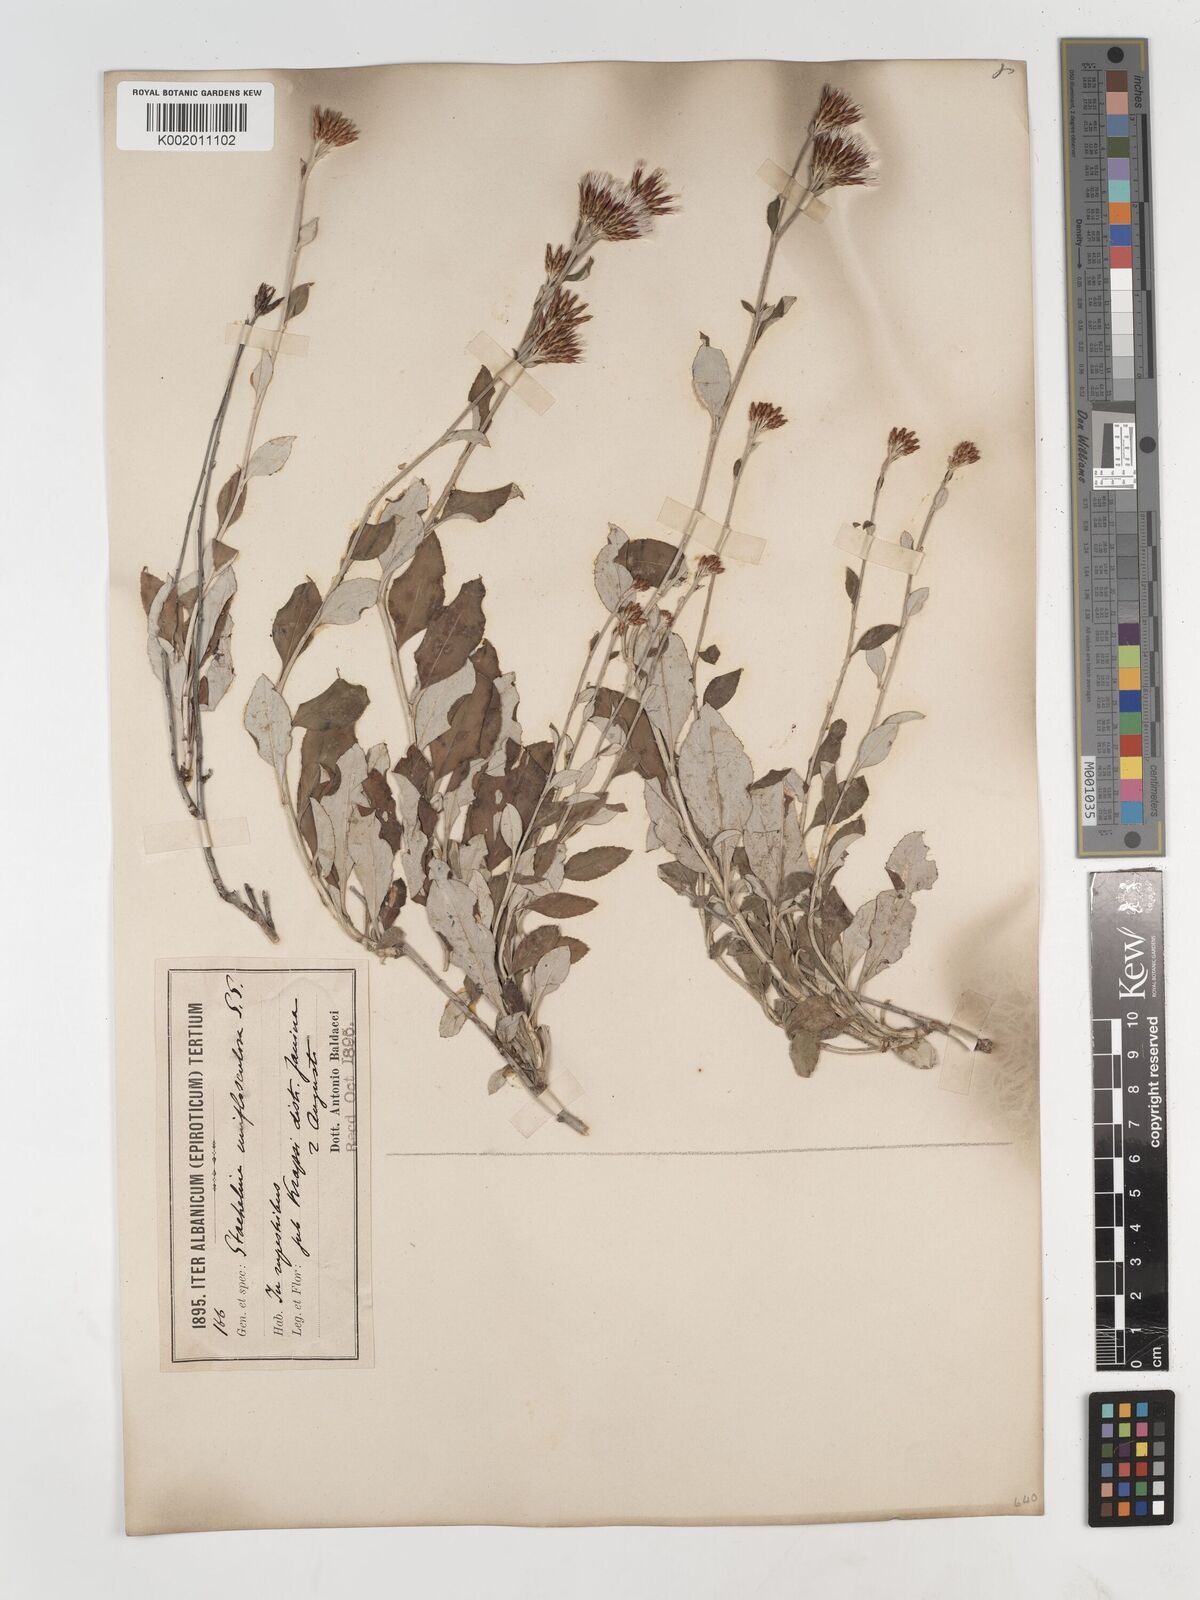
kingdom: Plantae
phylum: Tracheophyta
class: Magnoliopsida
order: Asterales
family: Asteraceae
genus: Staehelina
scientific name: Staehelina uniflosculosa
